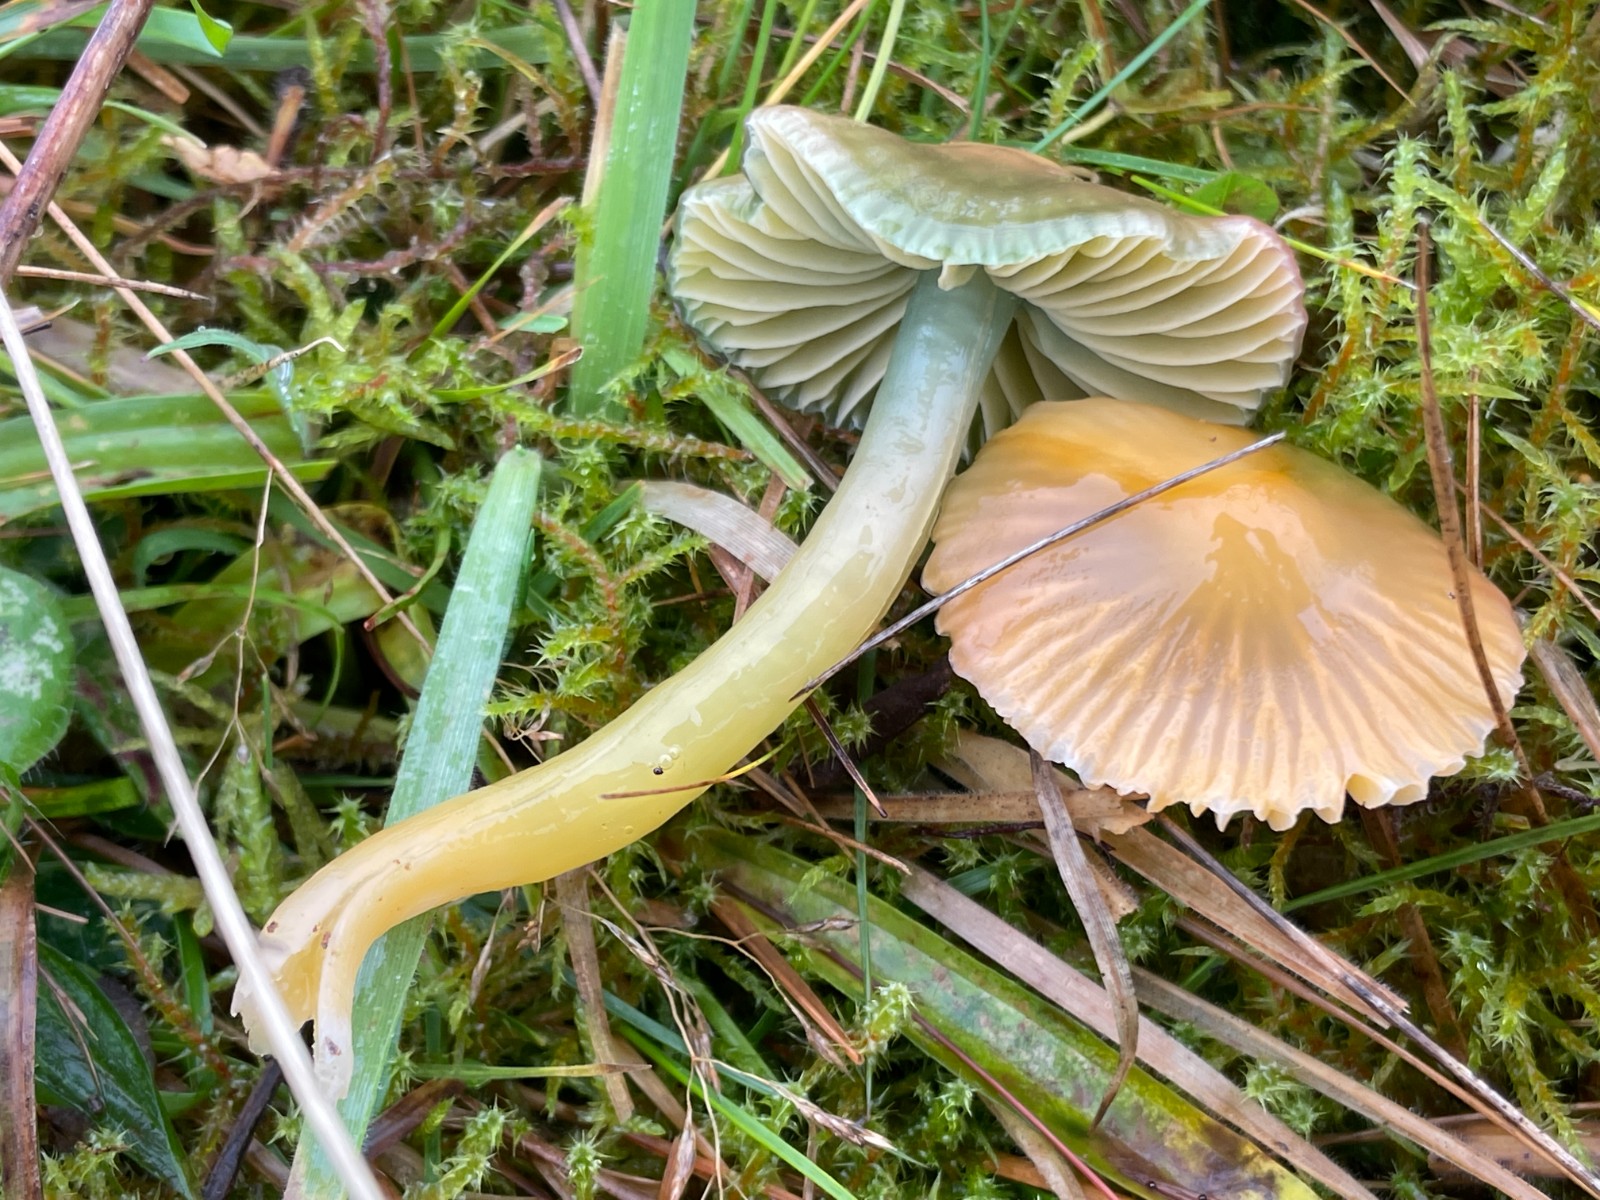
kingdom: Fungi
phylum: Basidiomycota
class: Agaricomycetes
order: Agaricales
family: Hygrophoraceae
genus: Gliophorus
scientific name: Gliophorus psittacinus
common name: papegøje-vokshat
